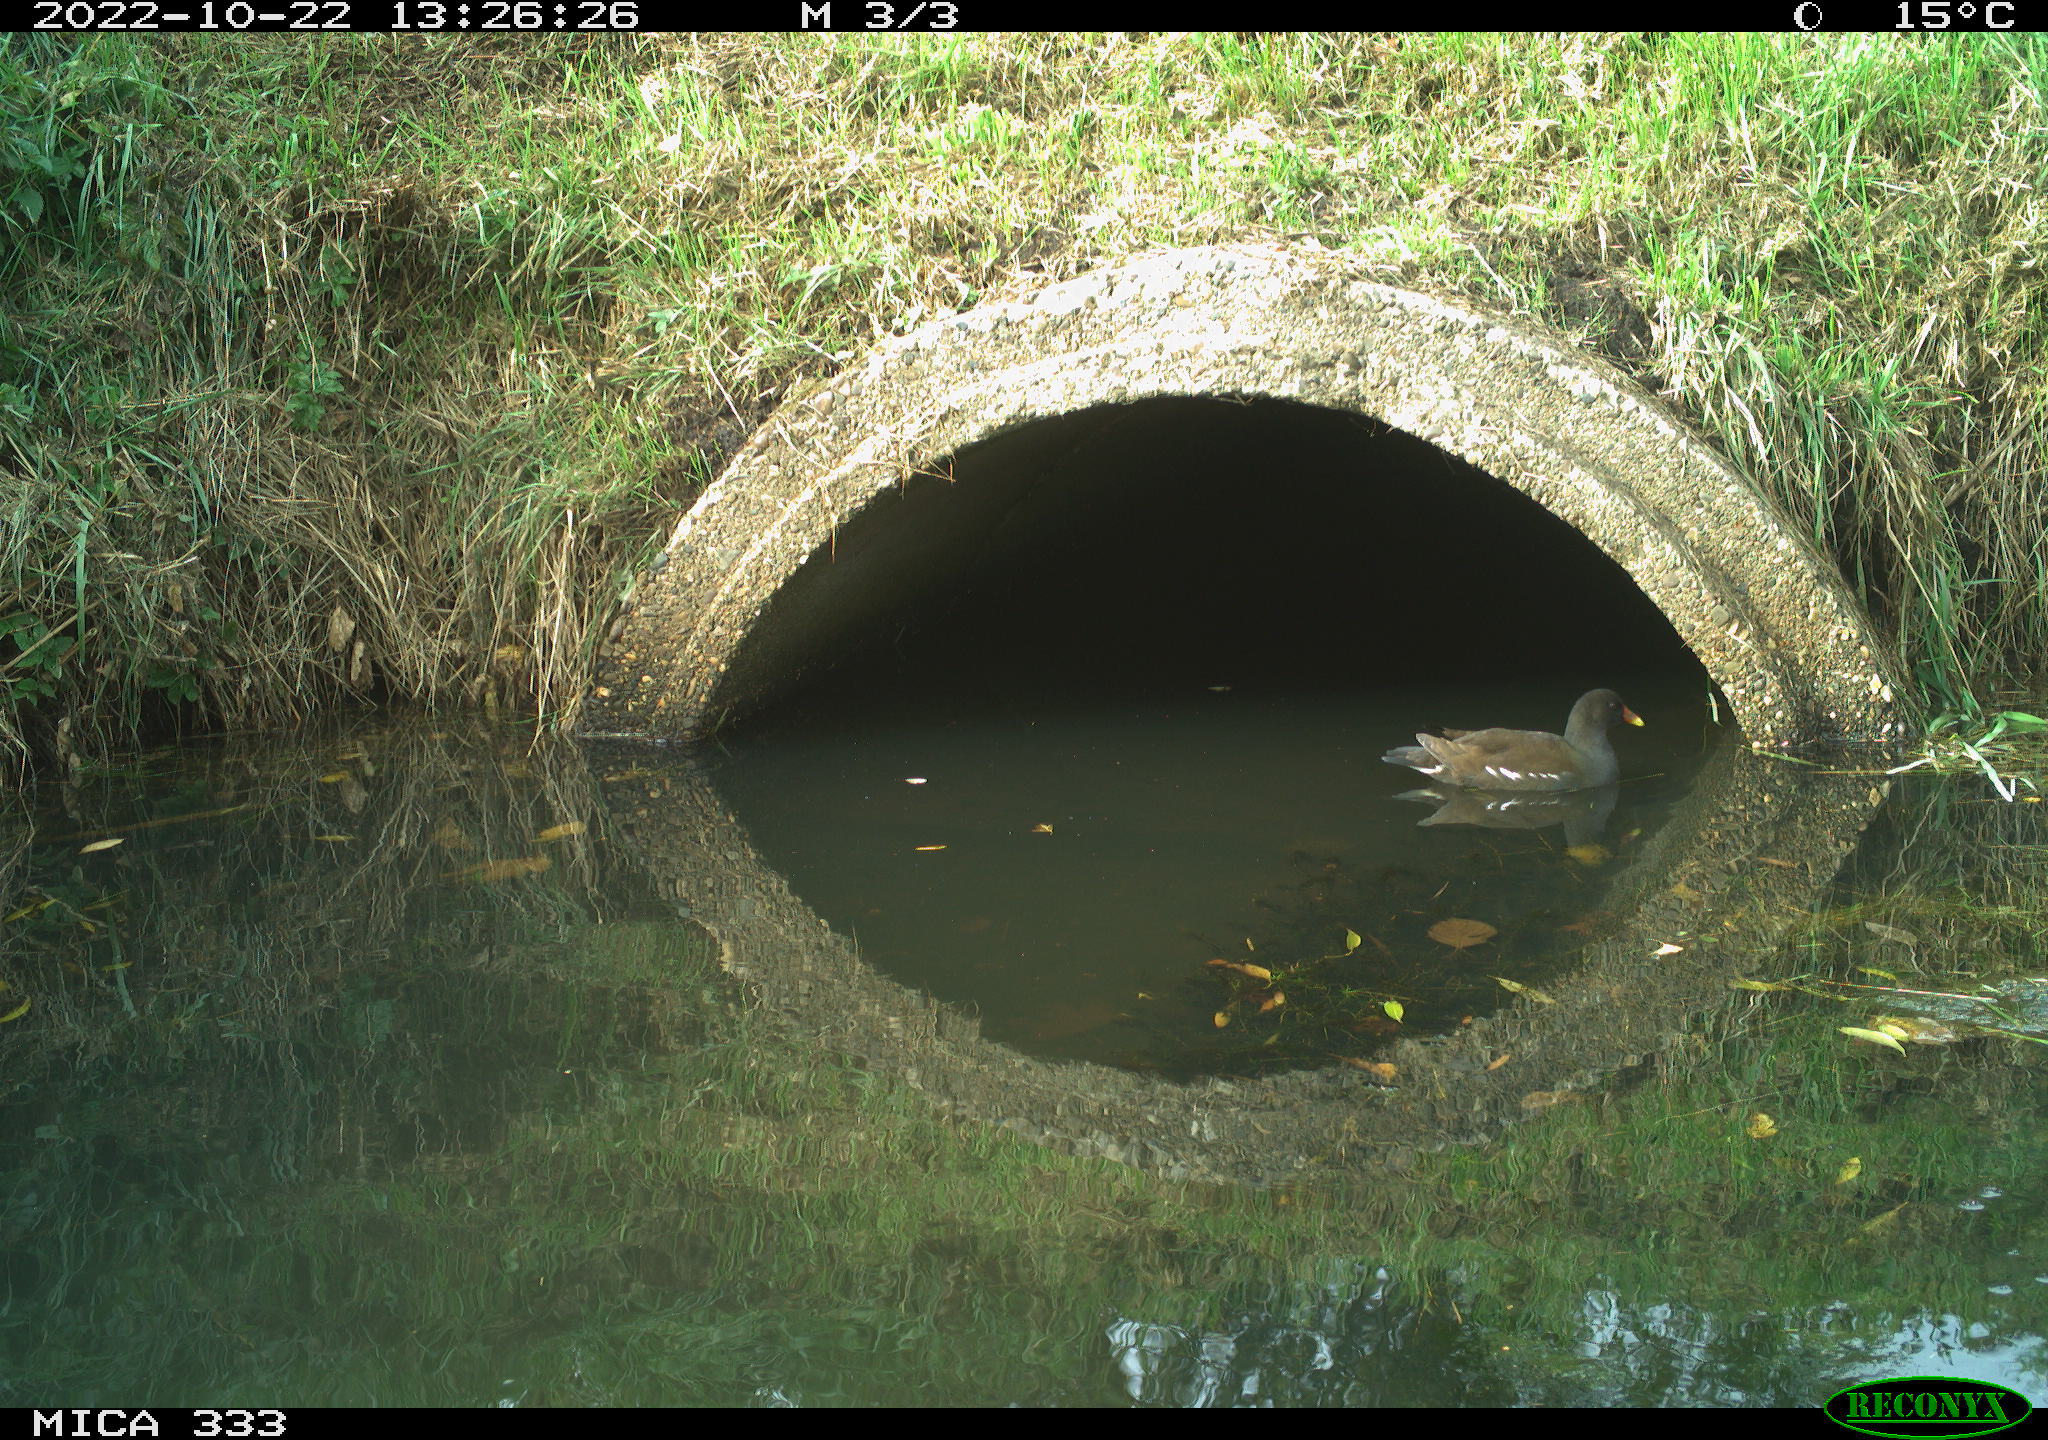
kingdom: Animalia
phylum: Chordata
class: Aves
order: Gruiformes
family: Rallidae
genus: Gallinula
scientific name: Gallinula chloropus
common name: Common moorhen
